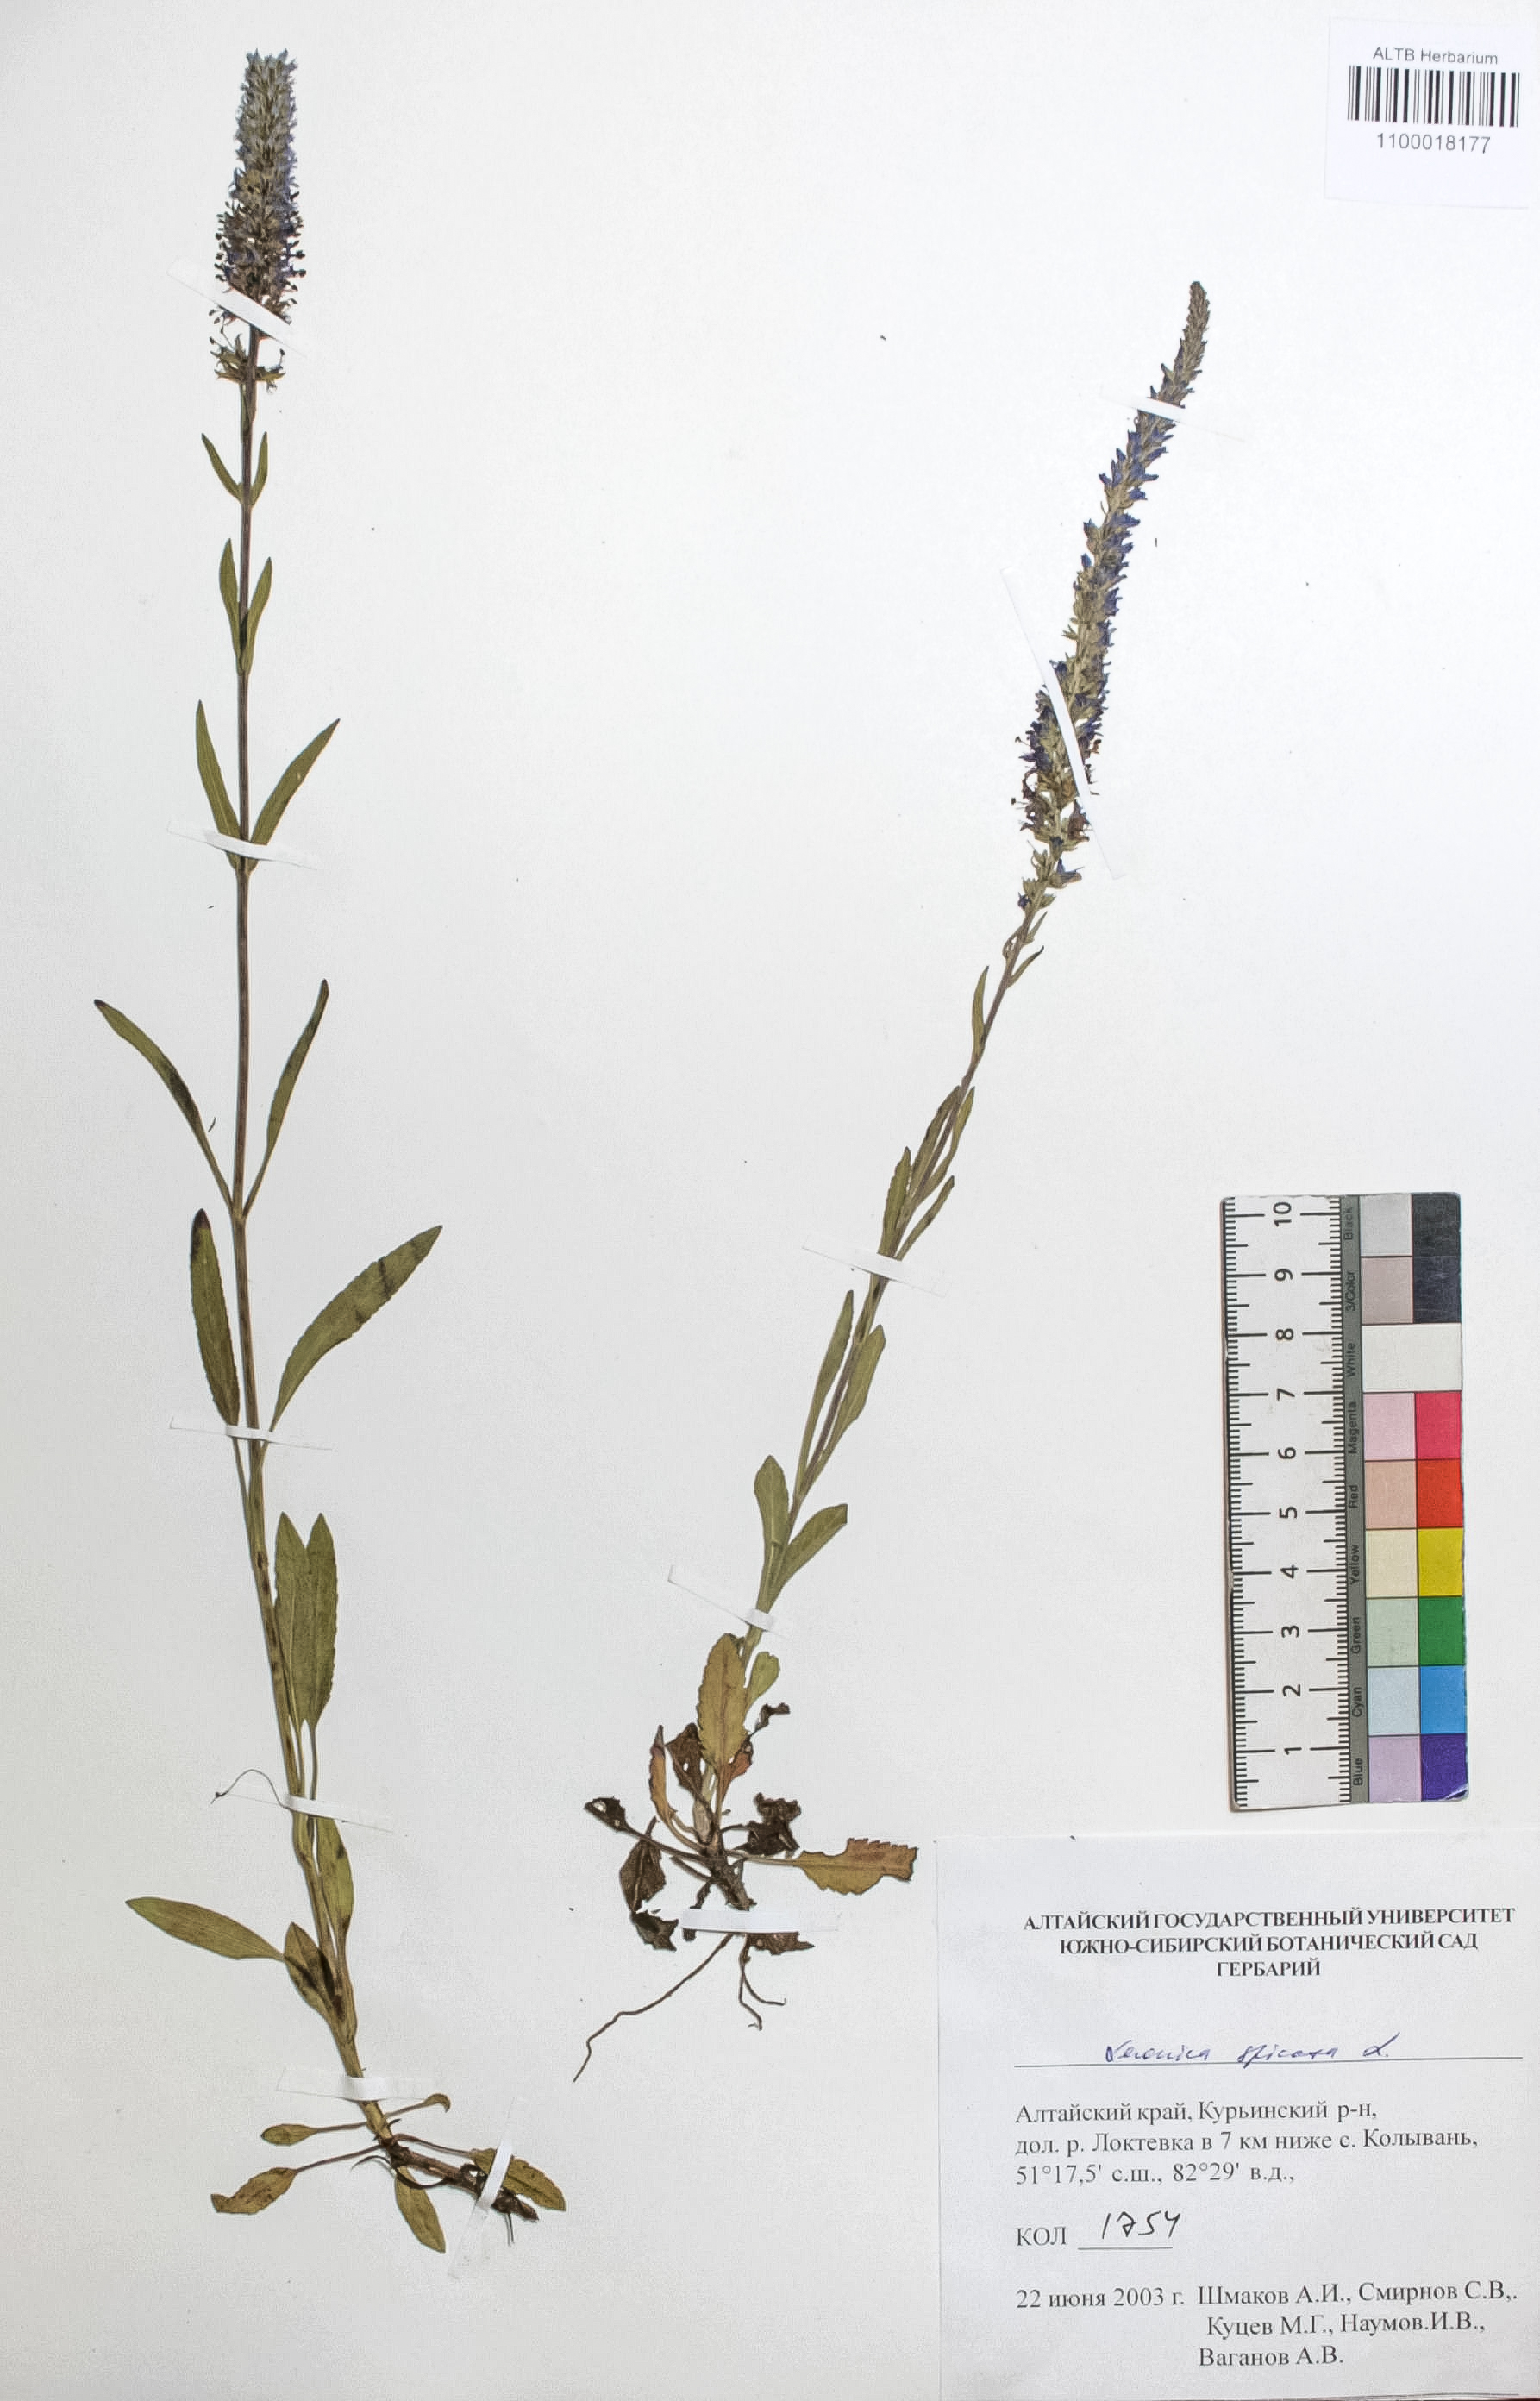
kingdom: Plantae
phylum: Tracheophyta
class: Magnoliopsida
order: Lamiales
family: Plantaginaceae
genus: Veronica
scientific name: Veronica spicata
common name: Spiked speedwell
